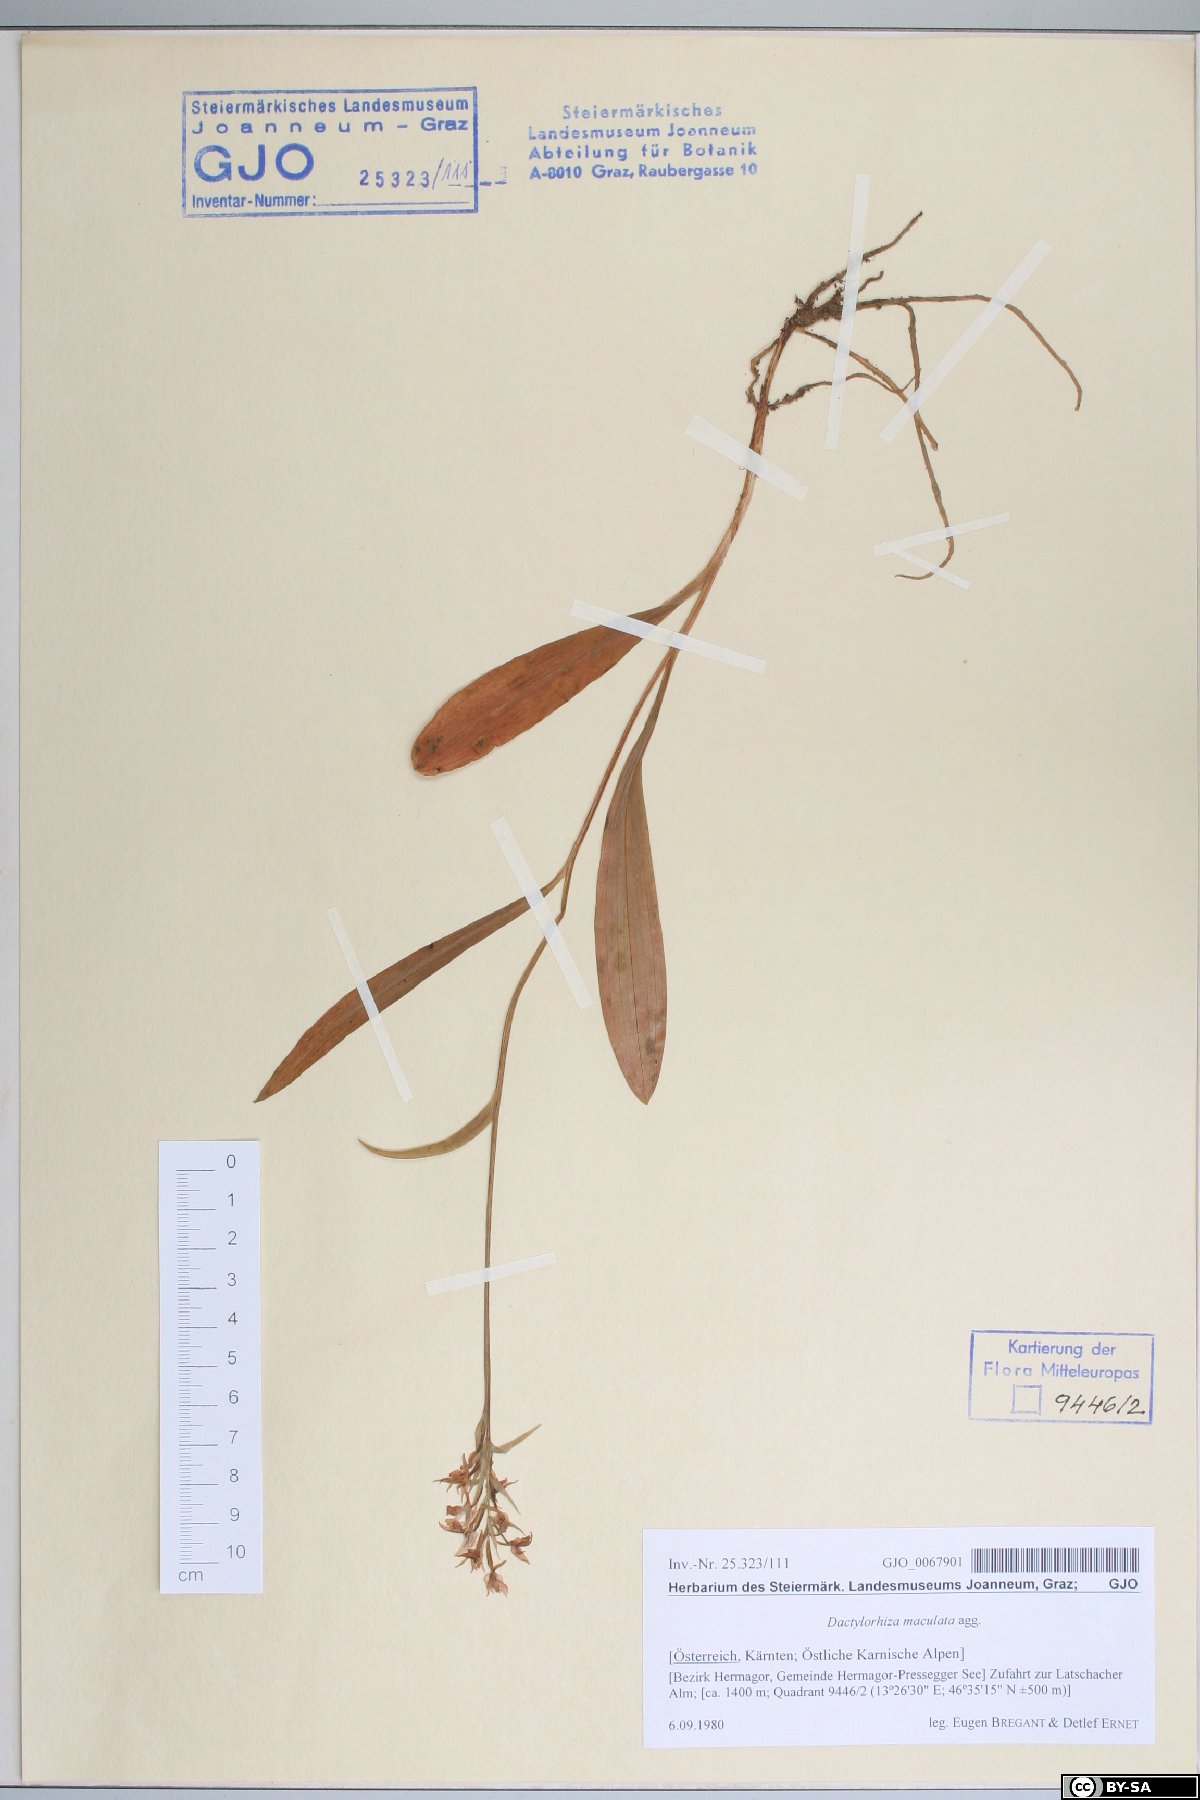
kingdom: Plantae
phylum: Tracheophyta
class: Liliopsida
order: Asparagales
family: Orchidaceae
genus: Dactylorhiza
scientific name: Dactylorhiza maculata
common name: Heath spotted-orchid
